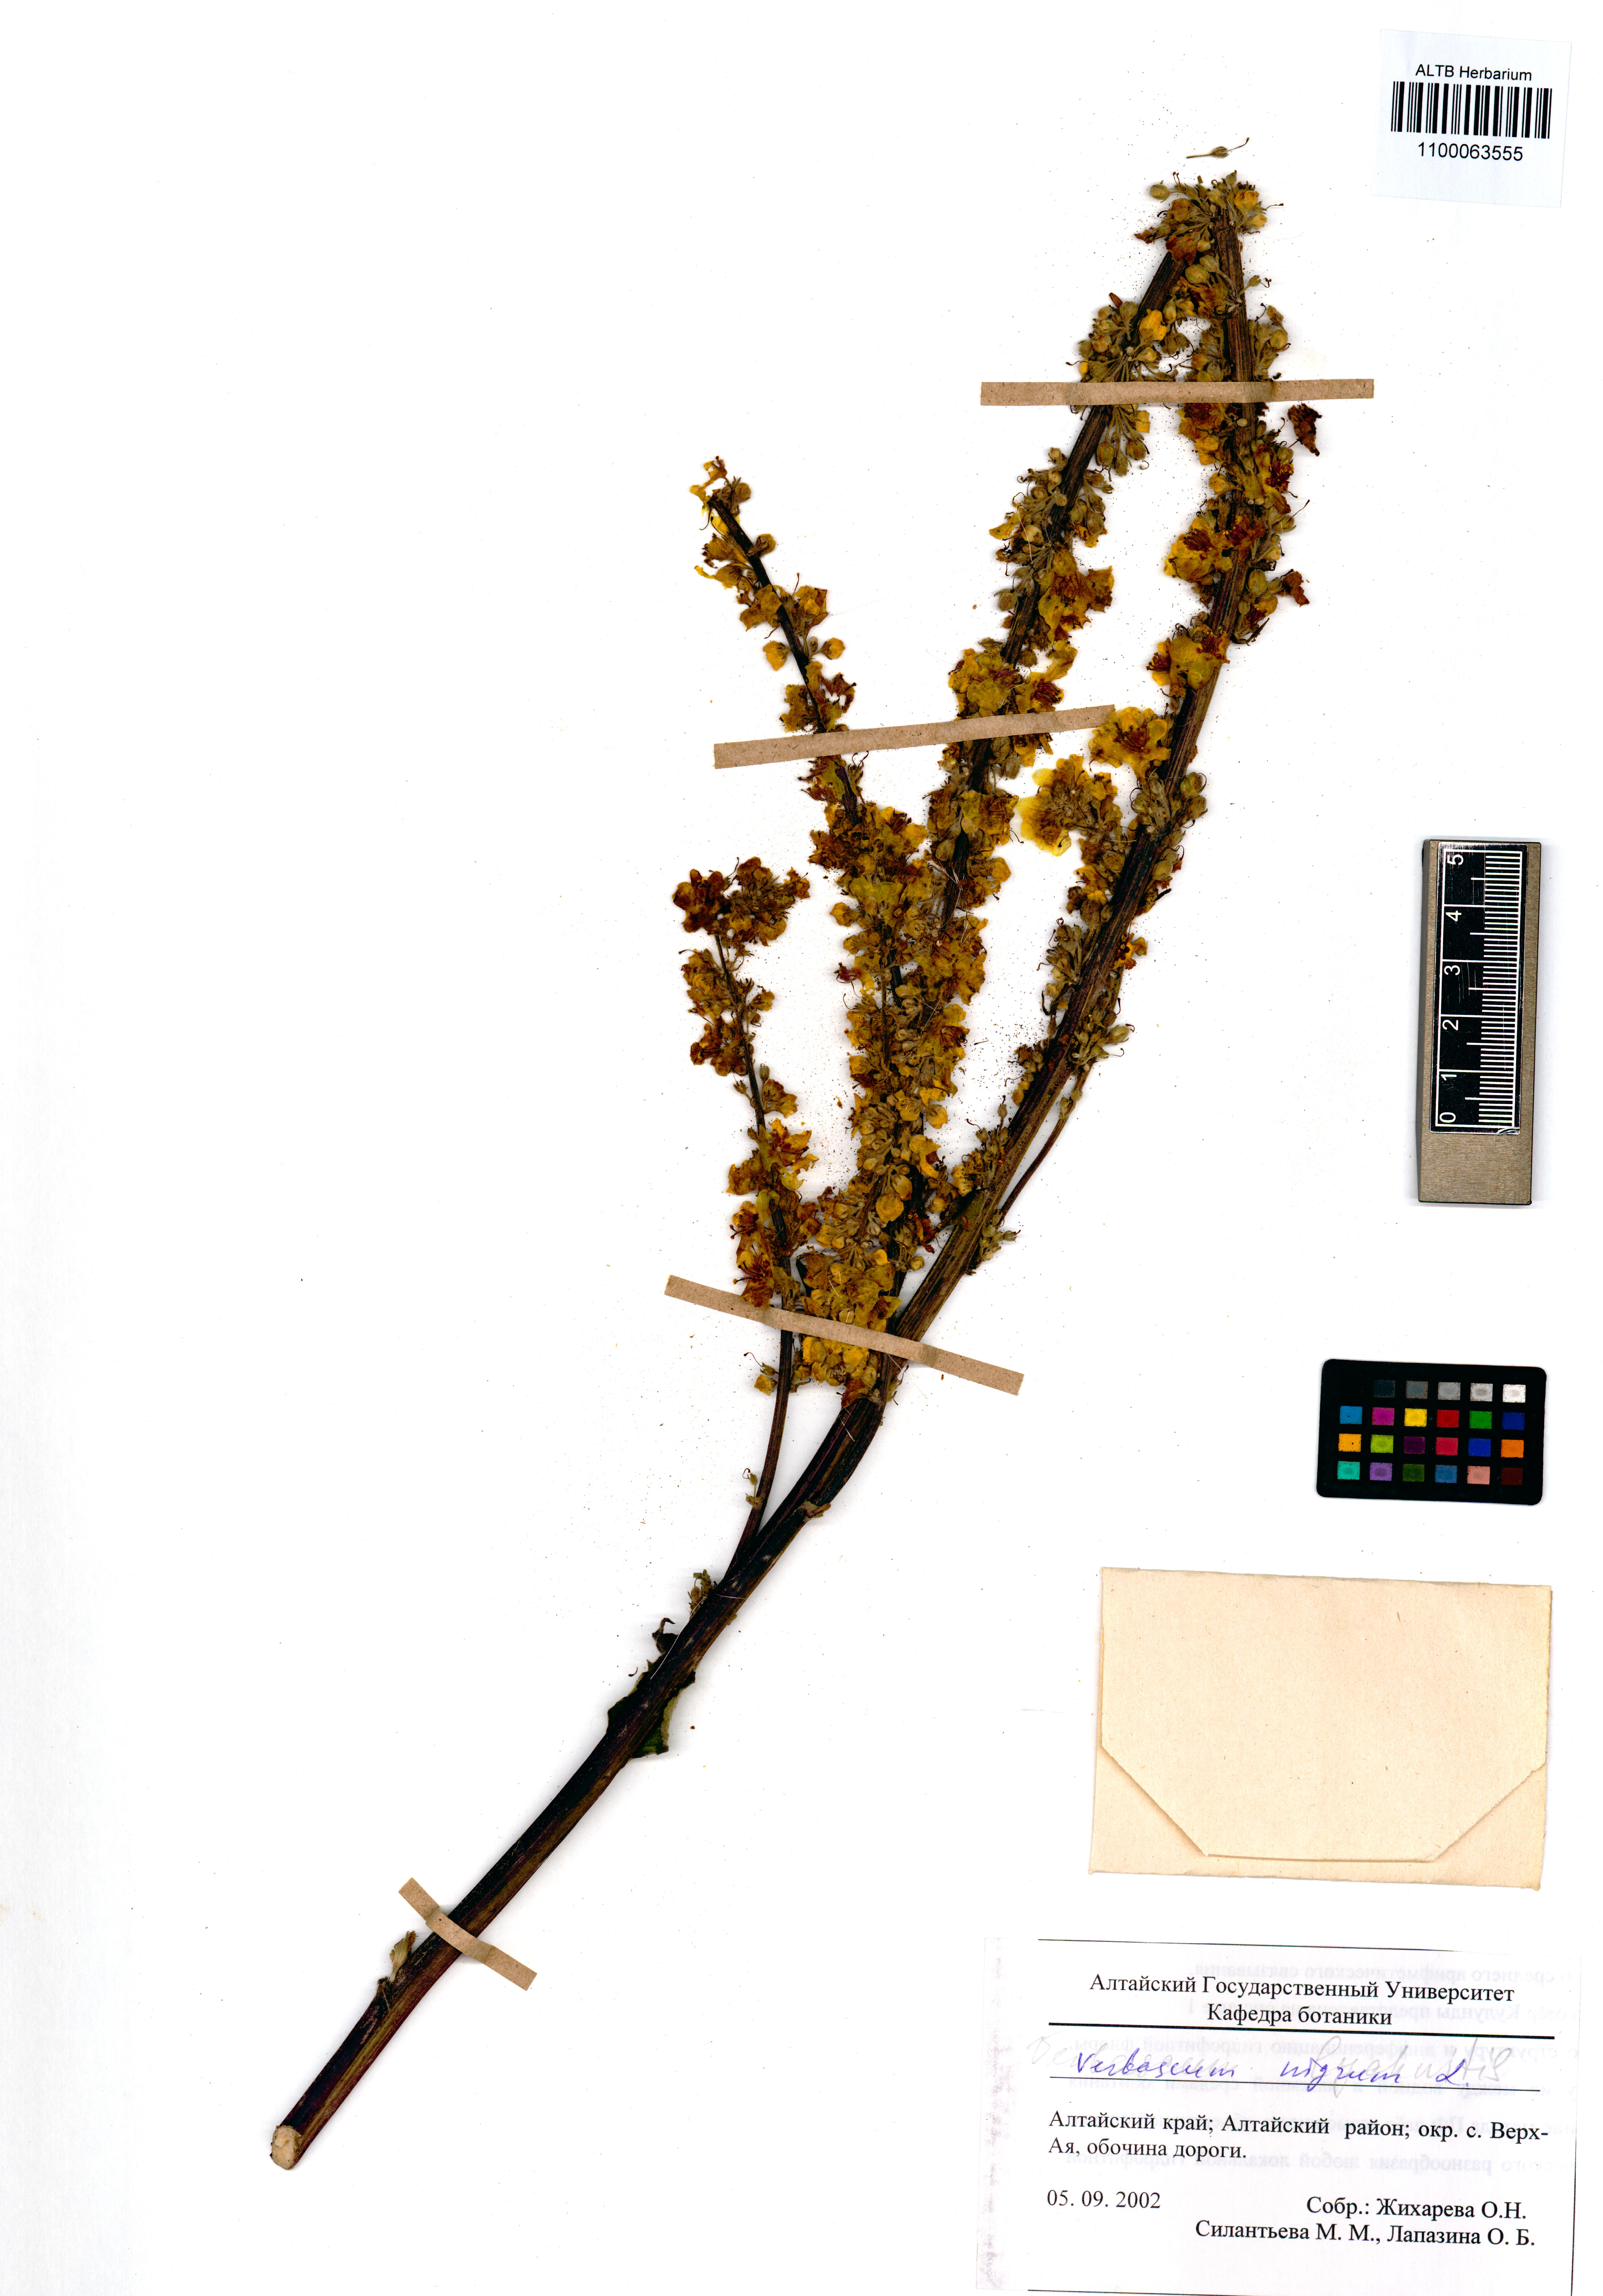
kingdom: Plantae
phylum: Tracheophyta
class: Magnoliopsida
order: Lamiales
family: Scrophulariaceae
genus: Verbascum
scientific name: Verbascum nigrum
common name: Dark mullein
